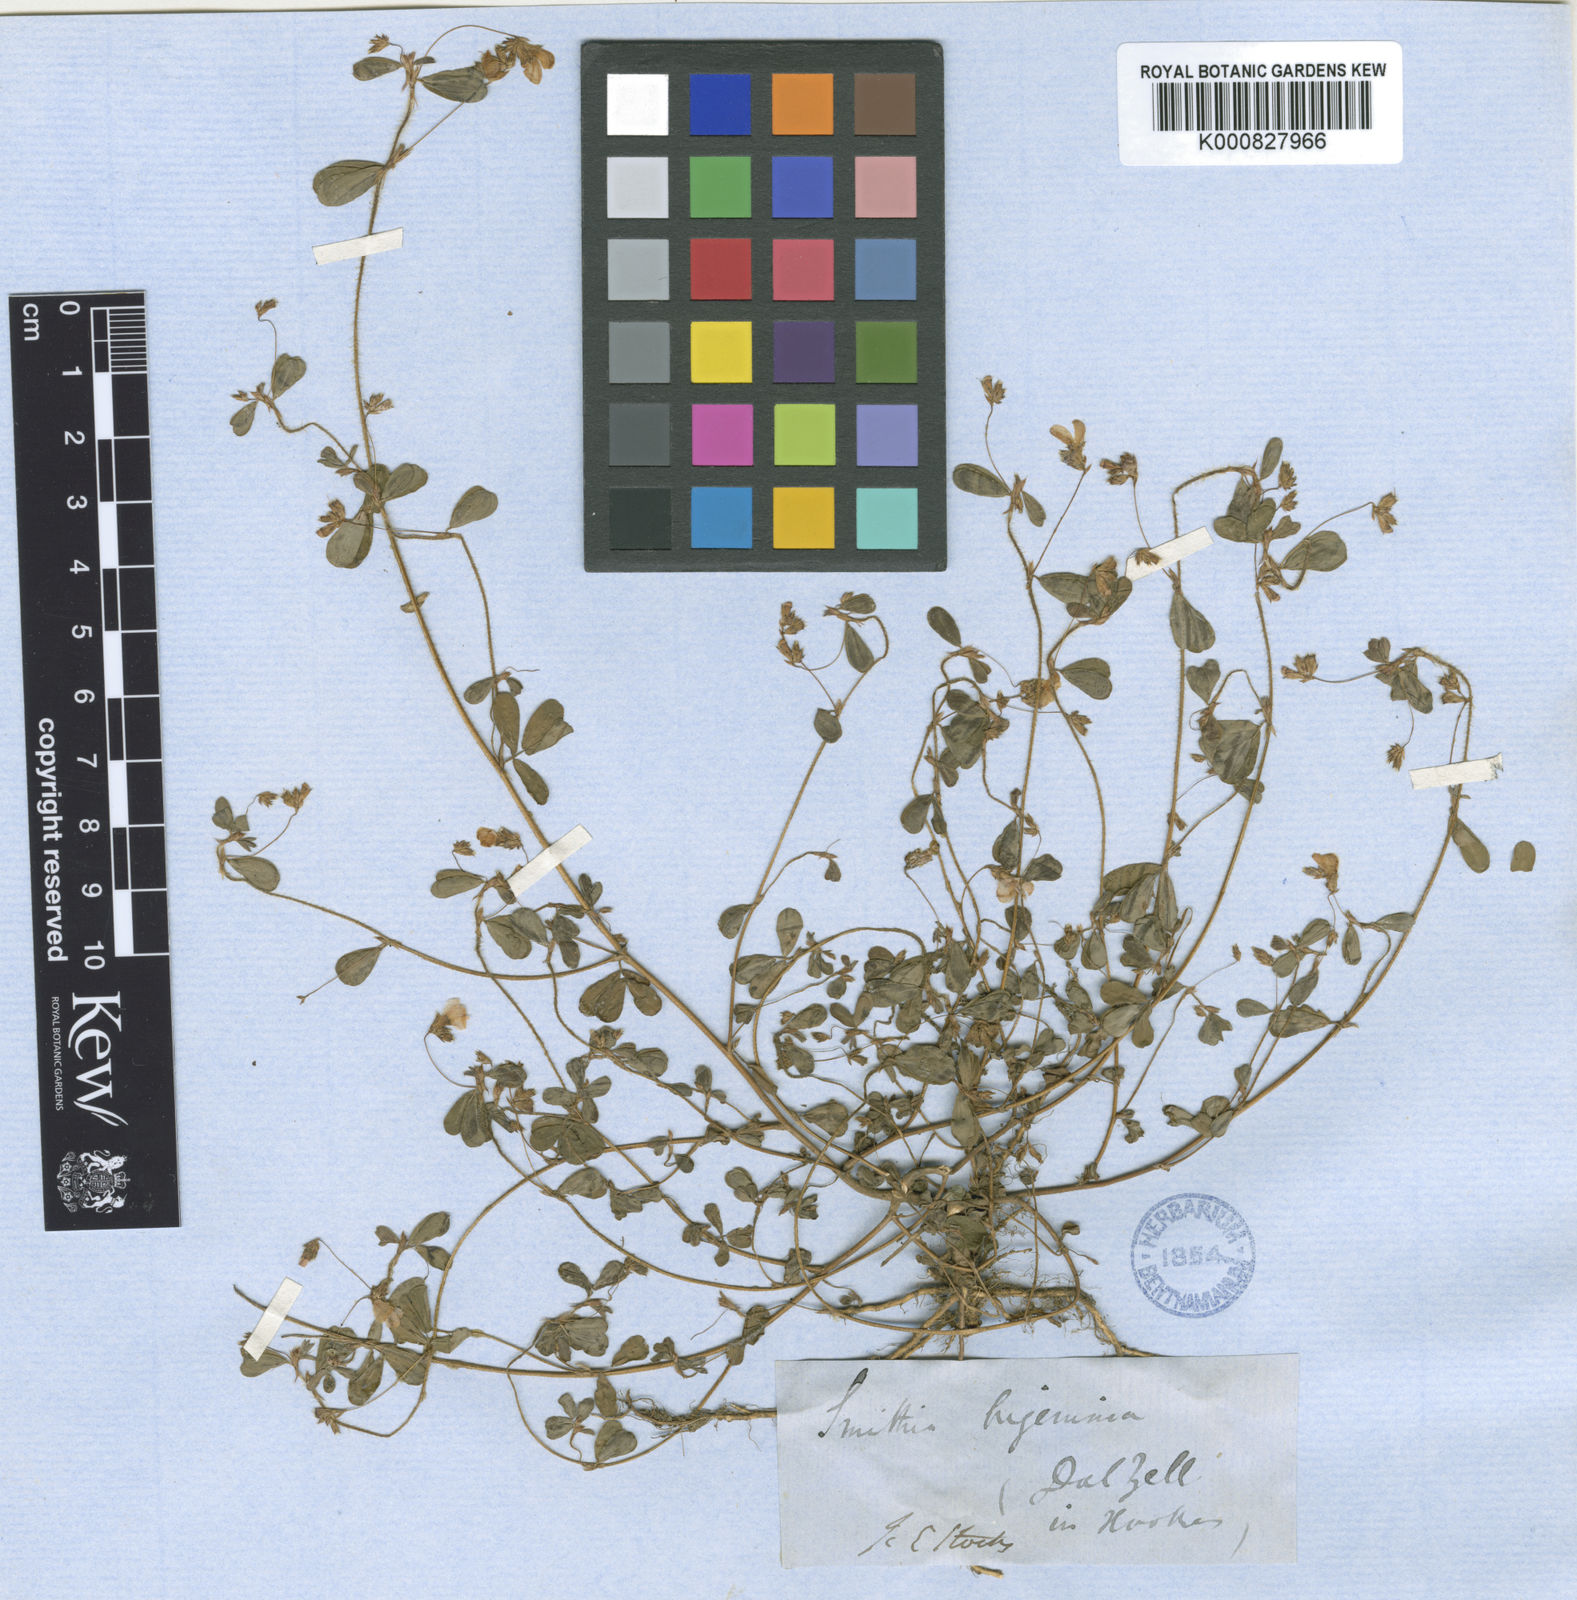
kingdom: Plantae
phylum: Tracheophyta
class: Magnoliopsida
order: Fabales
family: Fabaceae
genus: Smithia
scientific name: Smithia bigemina
